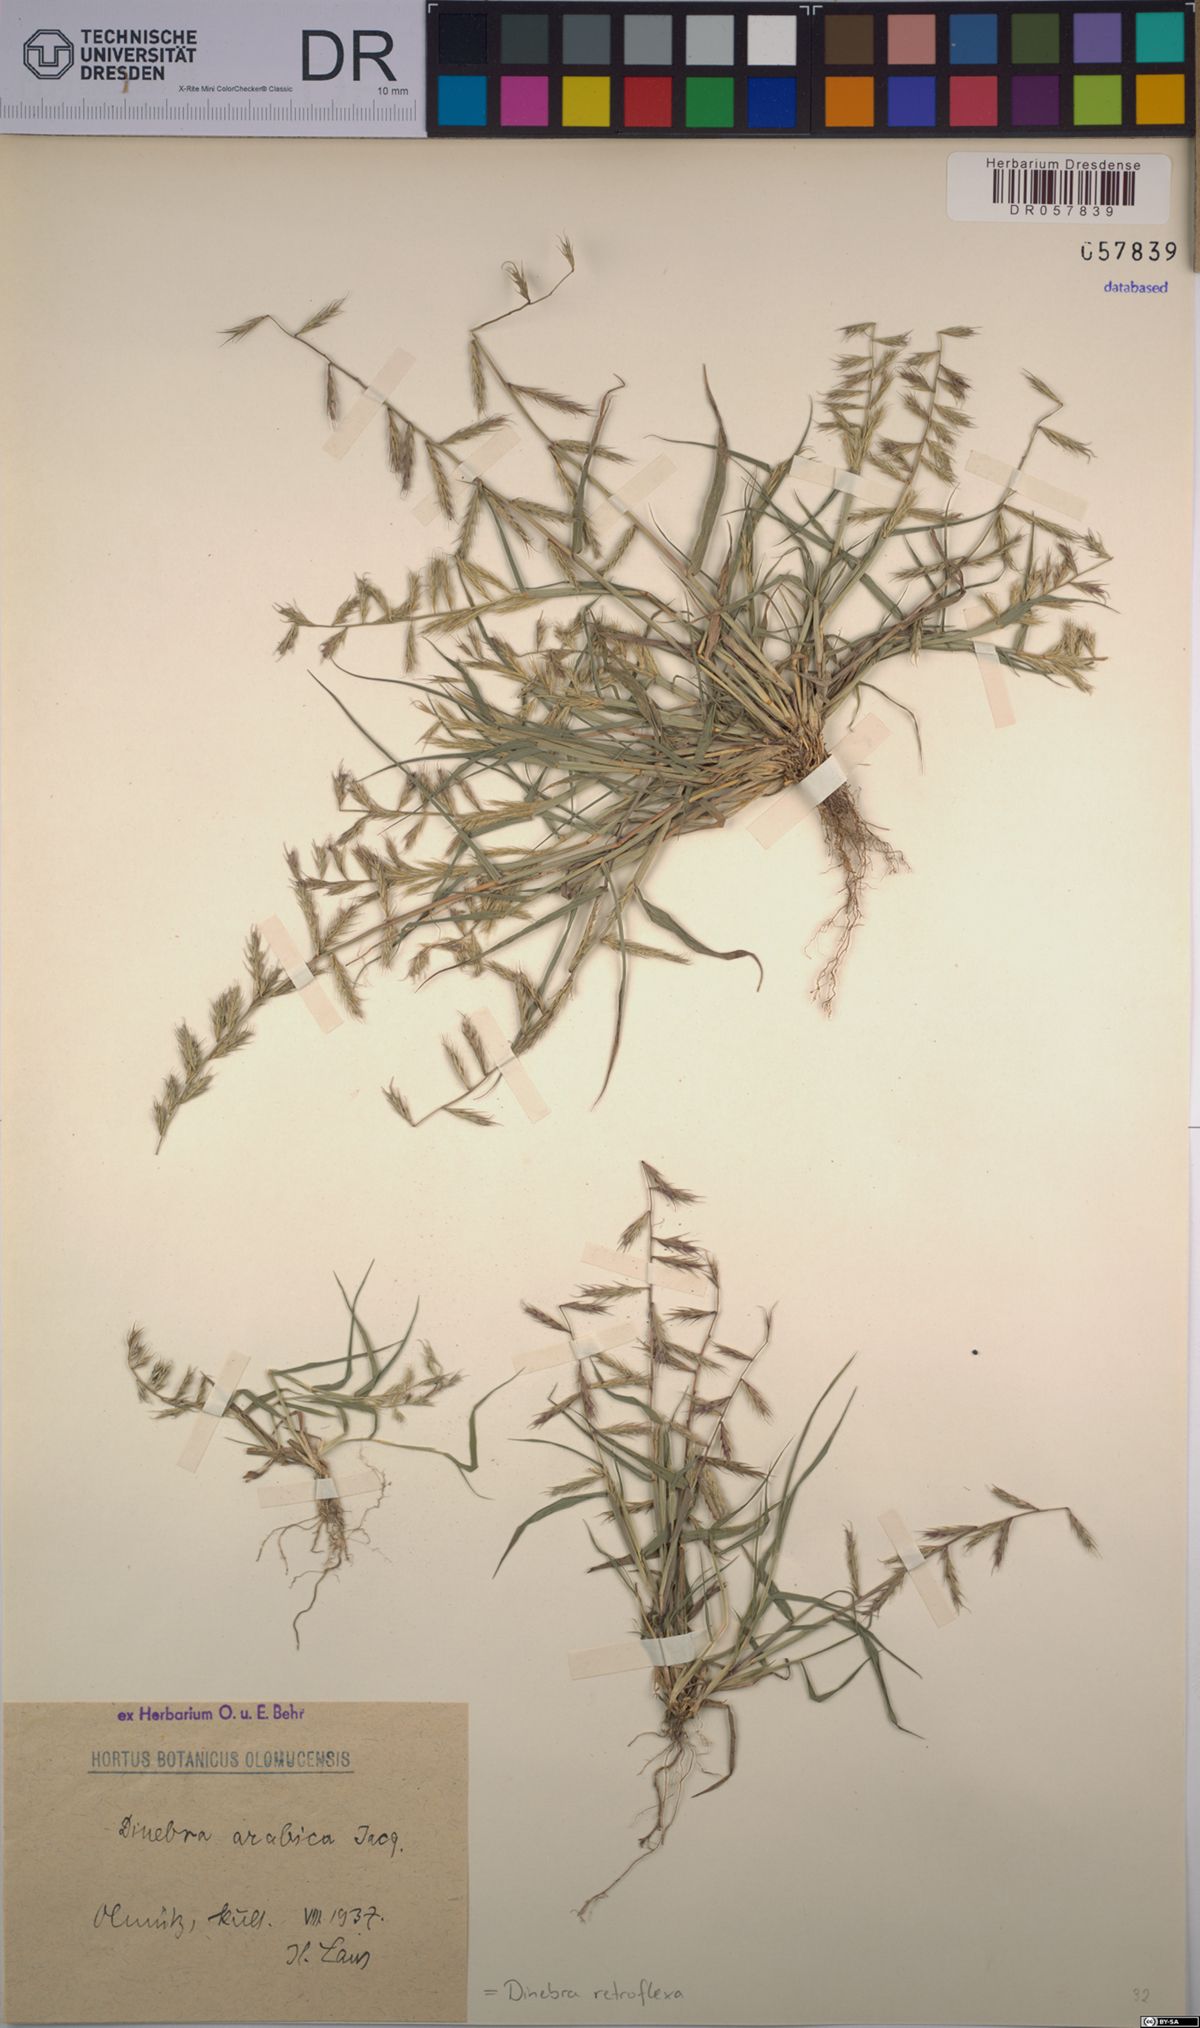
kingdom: Plantae
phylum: Tracheophyta
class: Liliopsida
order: Poales
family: Poaceae
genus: Dinebra
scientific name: Dinebra retroflexa
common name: Viper grass
